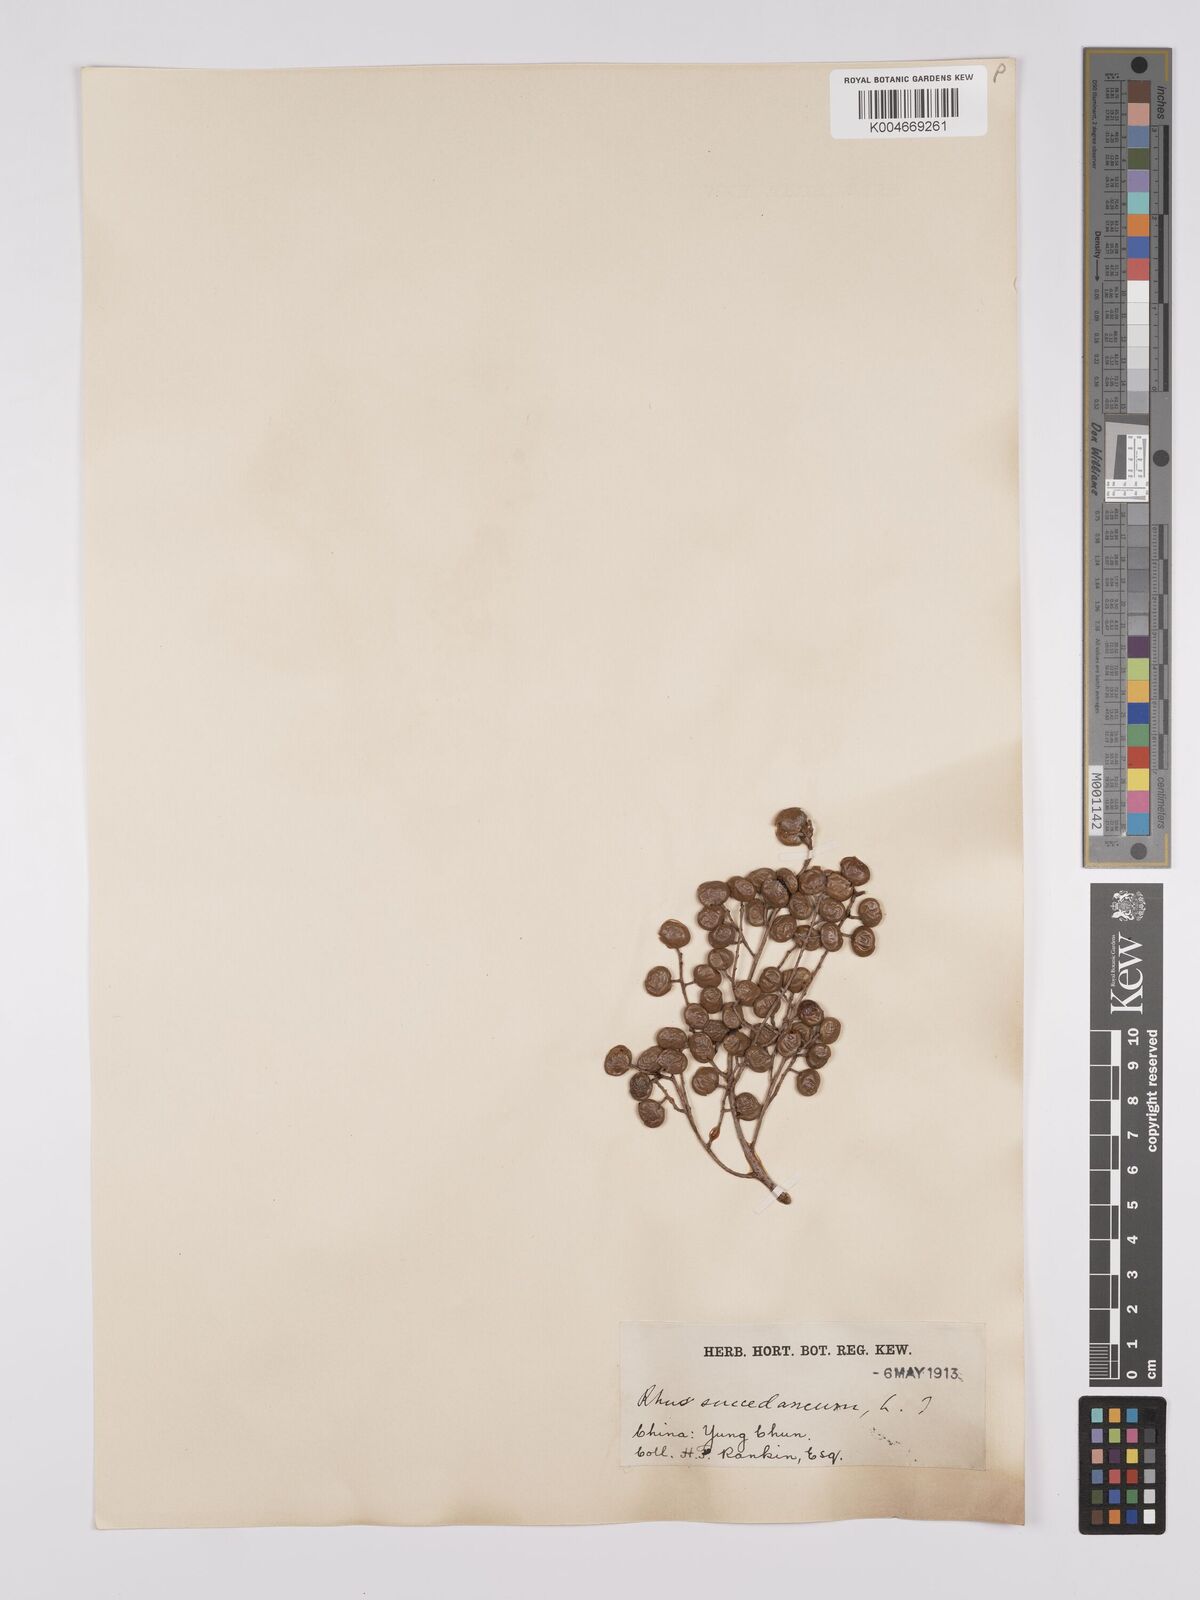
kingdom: Plantae
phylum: Tracheophyta
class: Magnoliopsida
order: Sapindales
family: Anacardiaceae
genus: Toxicodendron
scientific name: Toxicodendron succedaneum
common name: Wax tree
